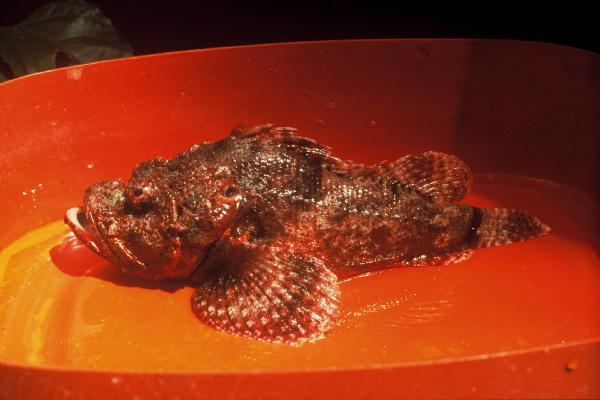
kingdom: Animalia
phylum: Chordata
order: Scorpaeniformes
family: Scorpaenidae
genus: Scorpaenopsis
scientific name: Scorpaenopsis diabolus
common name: False stonefish
